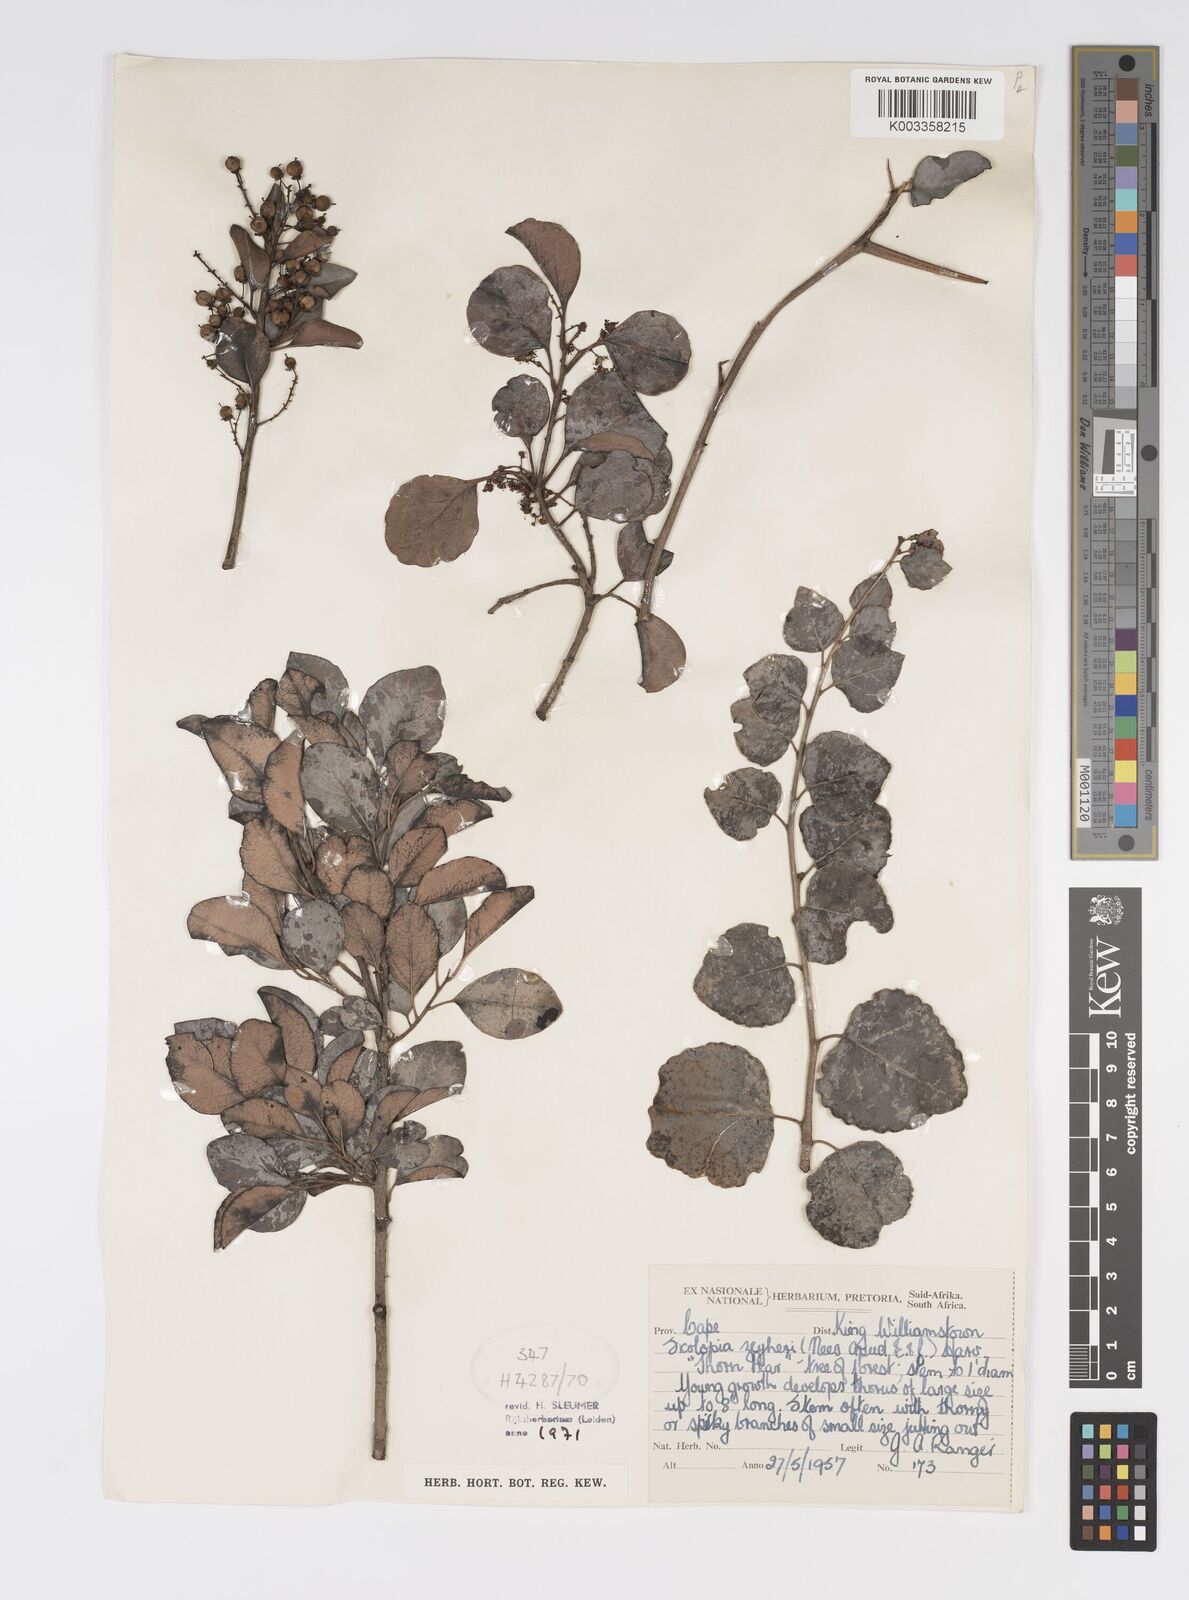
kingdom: Plantae
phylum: Tracheophyta
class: Magnoliopsida
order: Malpighiales
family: Salicaceae
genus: Scolopia
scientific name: Scolopia zeyheri
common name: Thorn pear
